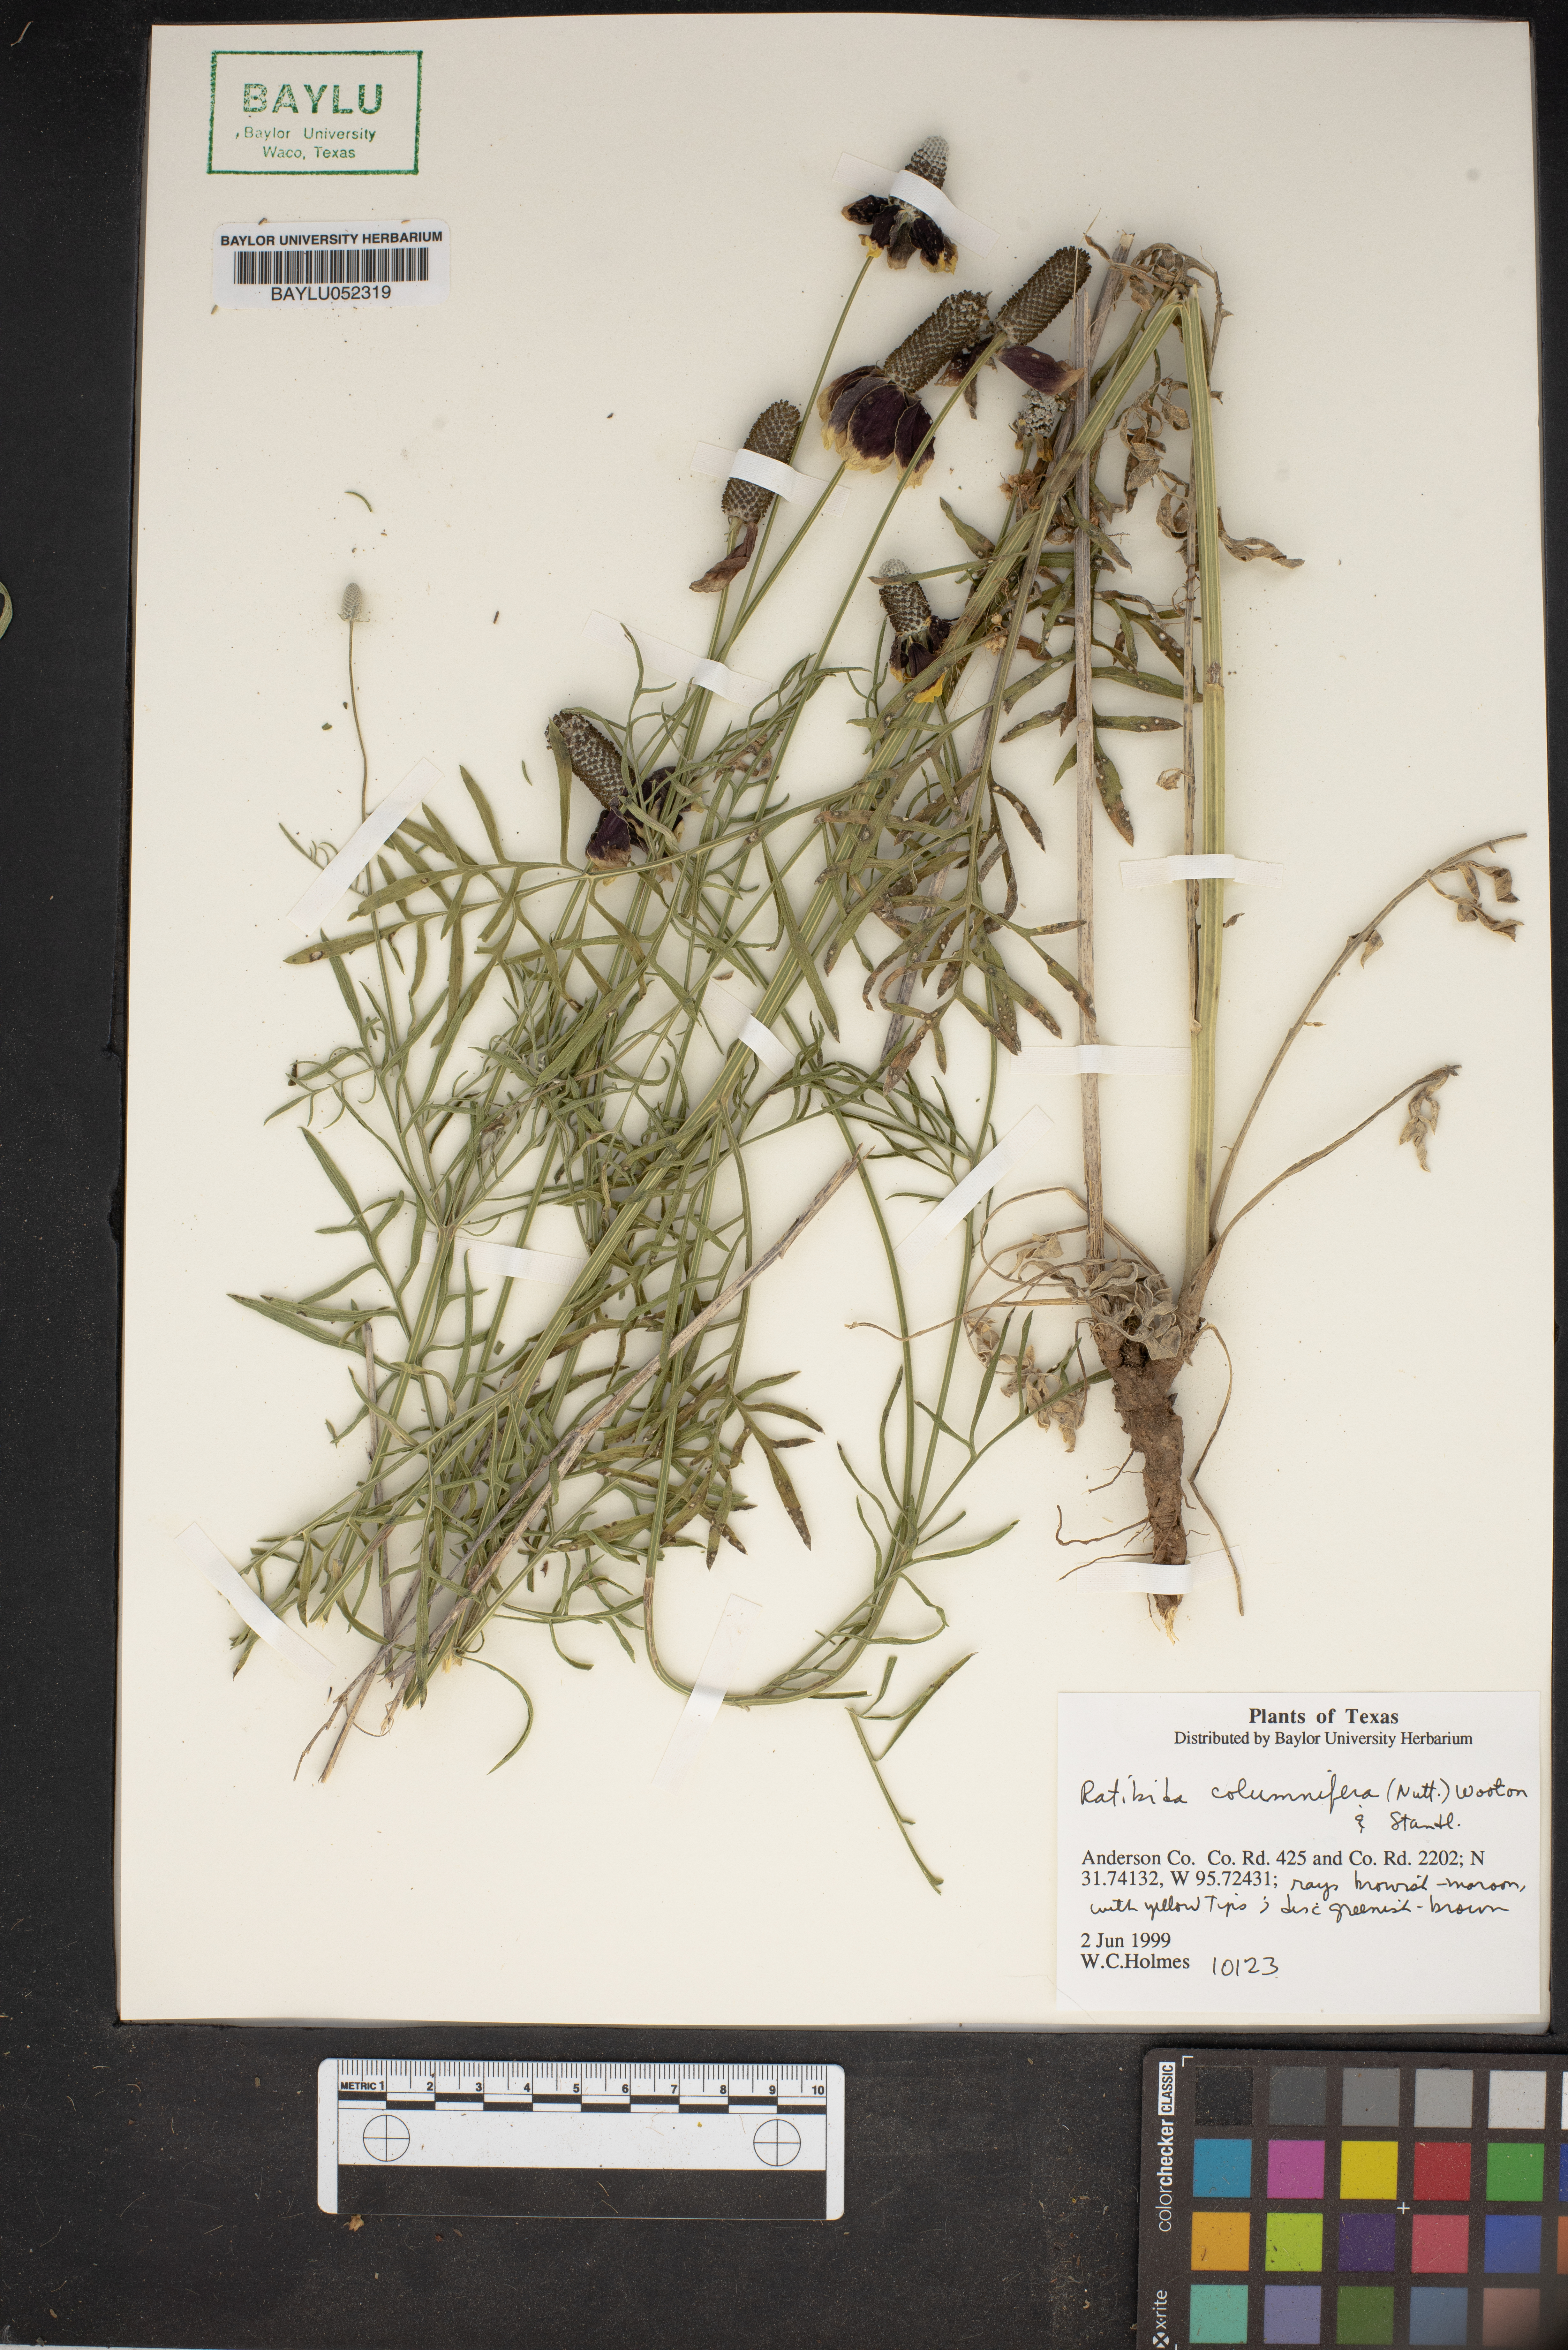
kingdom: Plantae
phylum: Tracheophyta
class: Magnoliopsida
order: Asterales
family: Asteraceae
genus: Ratibida
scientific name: Ratibida columnifera
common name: Prairie coneflower
